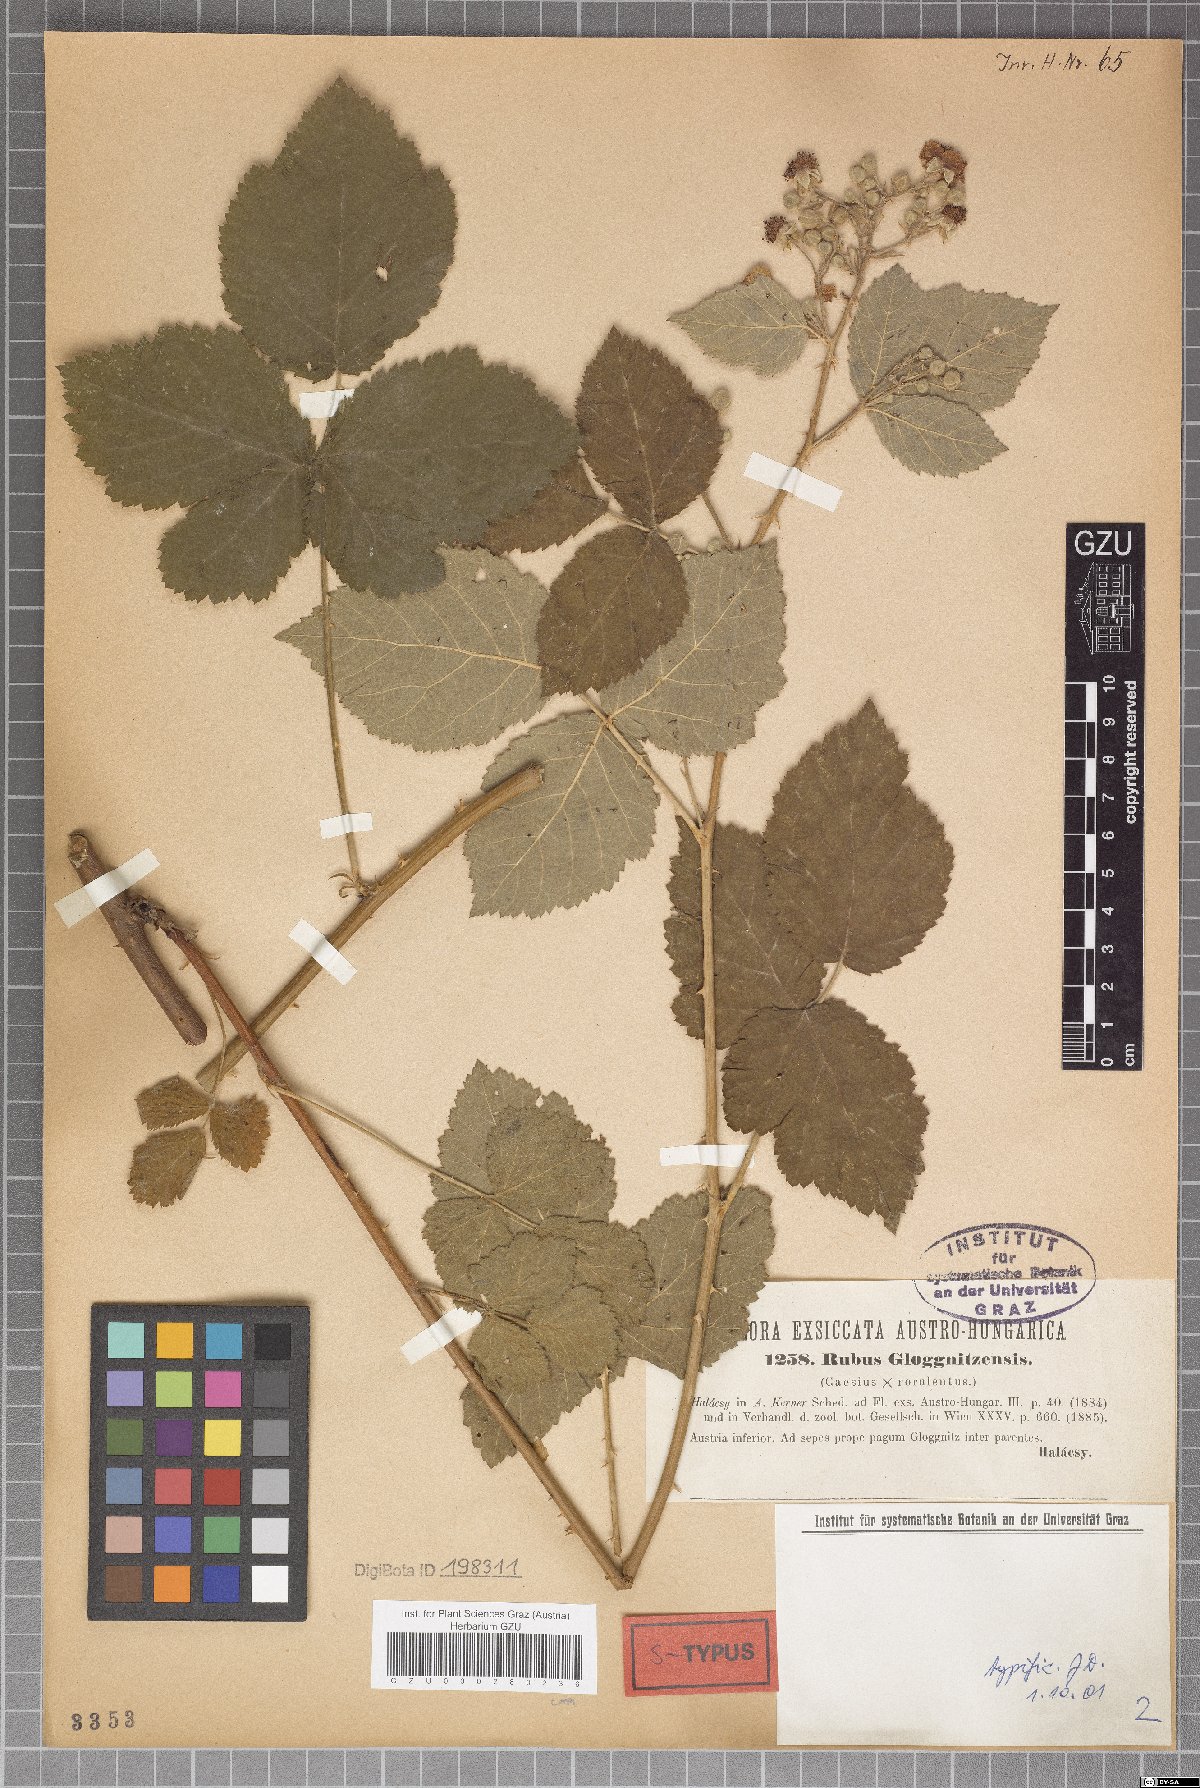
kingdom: Plantae
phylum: Tracheophyta
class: Magnoliopsida
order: Rosales
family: Rosaceae
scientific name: Rosaceae
